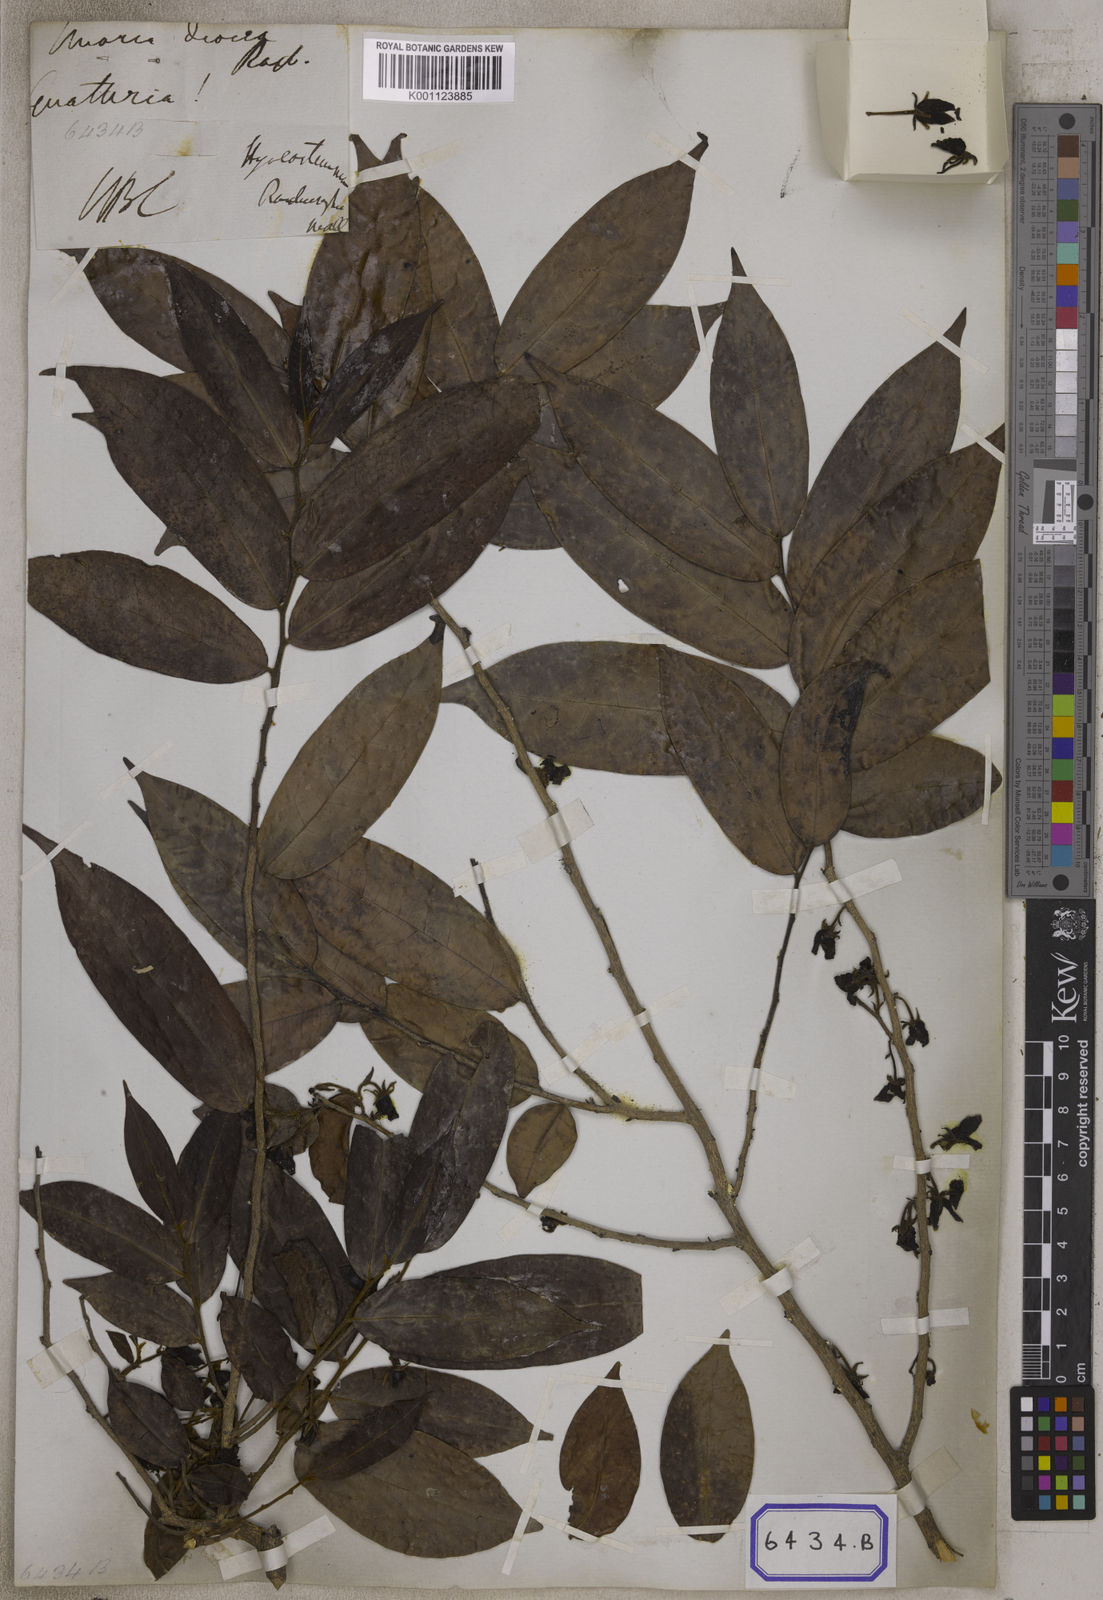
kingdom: Plantae
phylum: Tracheophyta
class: Magnoliopsida
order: Magnoliales
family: Annonaceae
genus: Hyalostemma
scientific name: Hyalostemma
